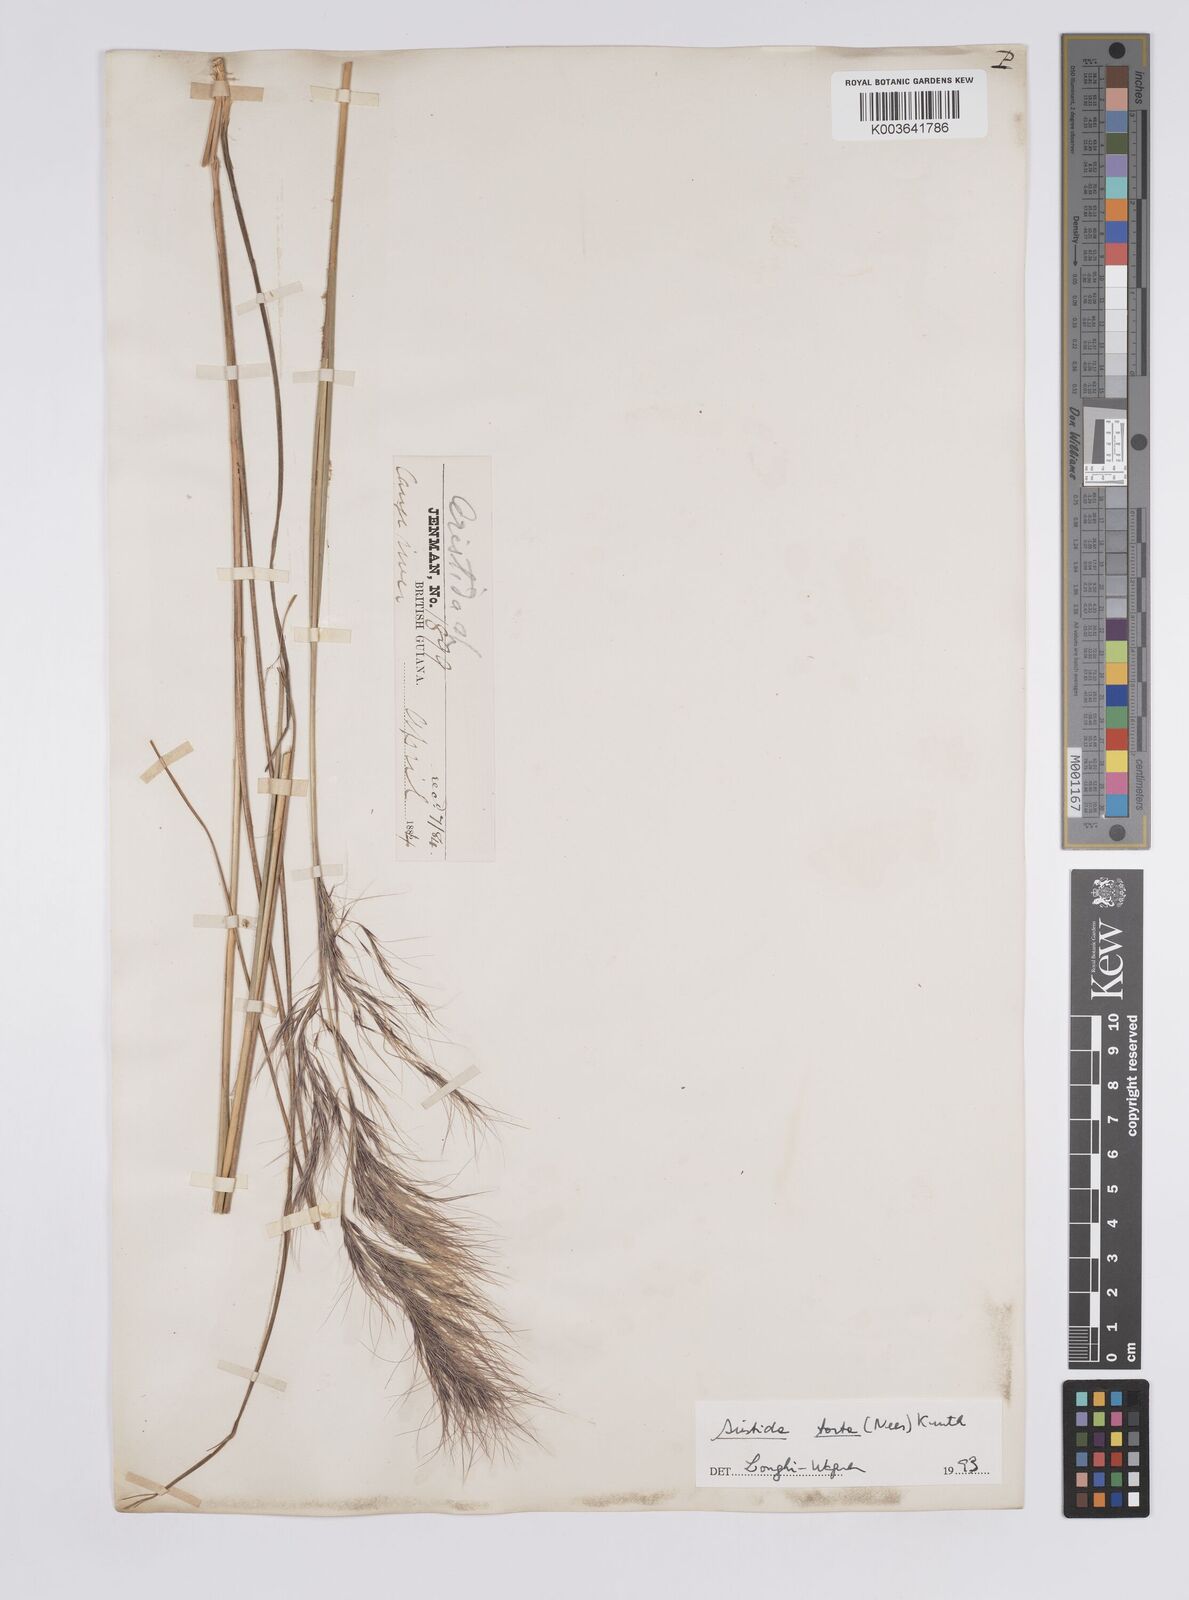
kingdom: Plantae
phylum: Tracheophyta
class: Liliopsida
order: Poales
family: Poaceae
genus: Aristida
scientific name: Aristida torta
